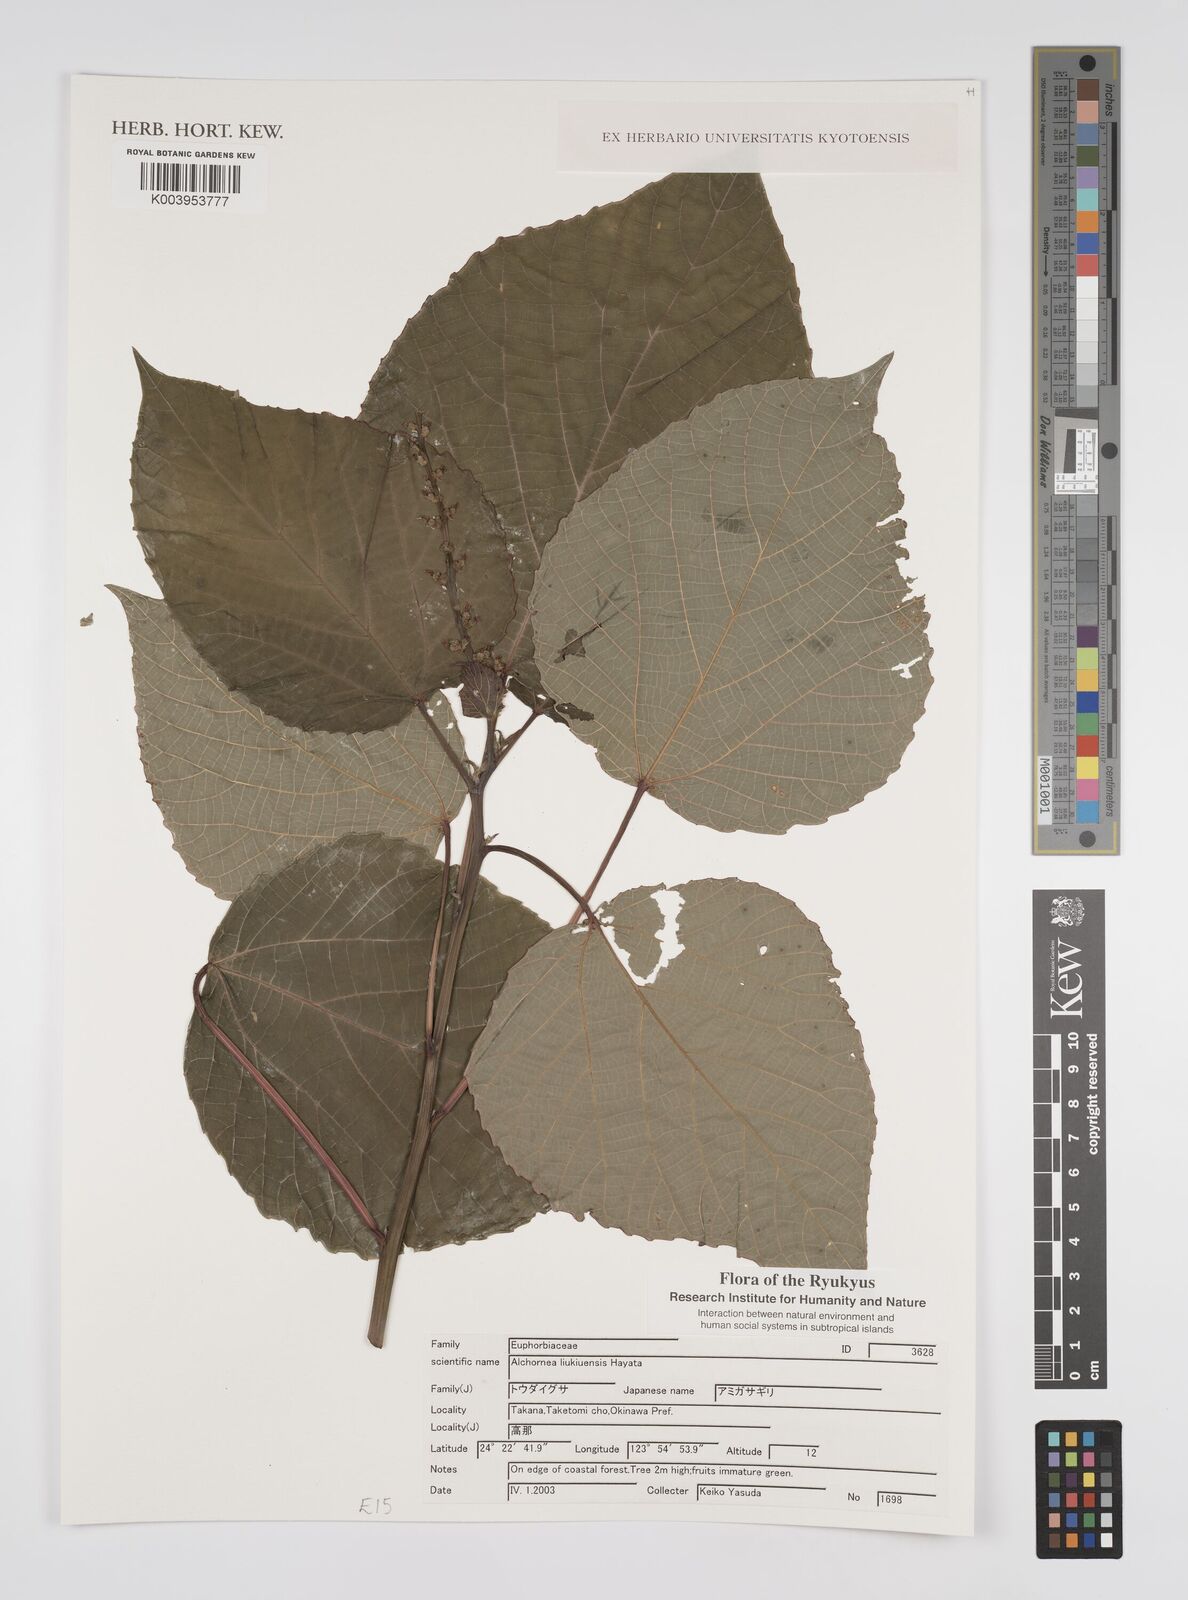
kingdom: Plantae
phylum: Tracheophyta
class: Magnoliopsida
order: Malpighiales
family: Euphorbiaceae
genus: Alchornea
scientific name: Alchornea liukiuensis
